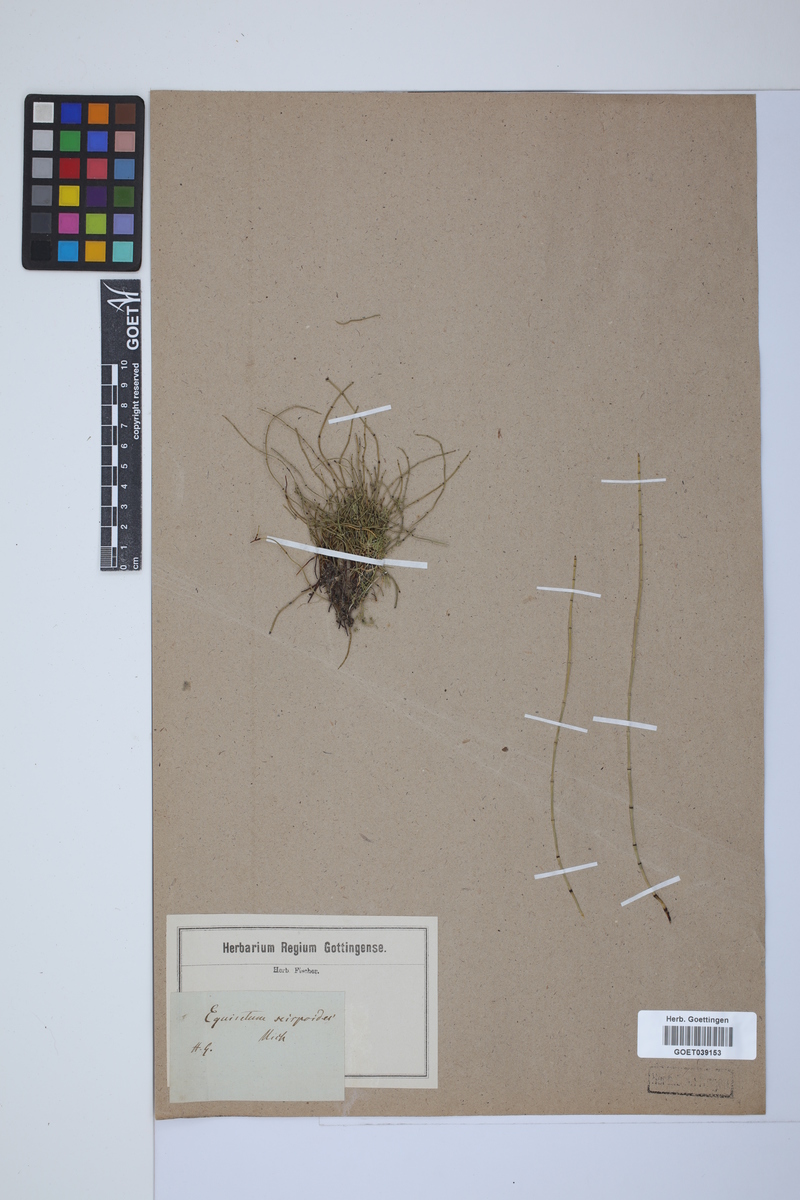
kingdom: Plantae
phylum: Tracheophyta
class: Polypodiopsida
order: Equisetales
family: Equisetaceae
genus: Equisetum
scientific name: Equisetum scirpoides
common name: Delicate horsetail
